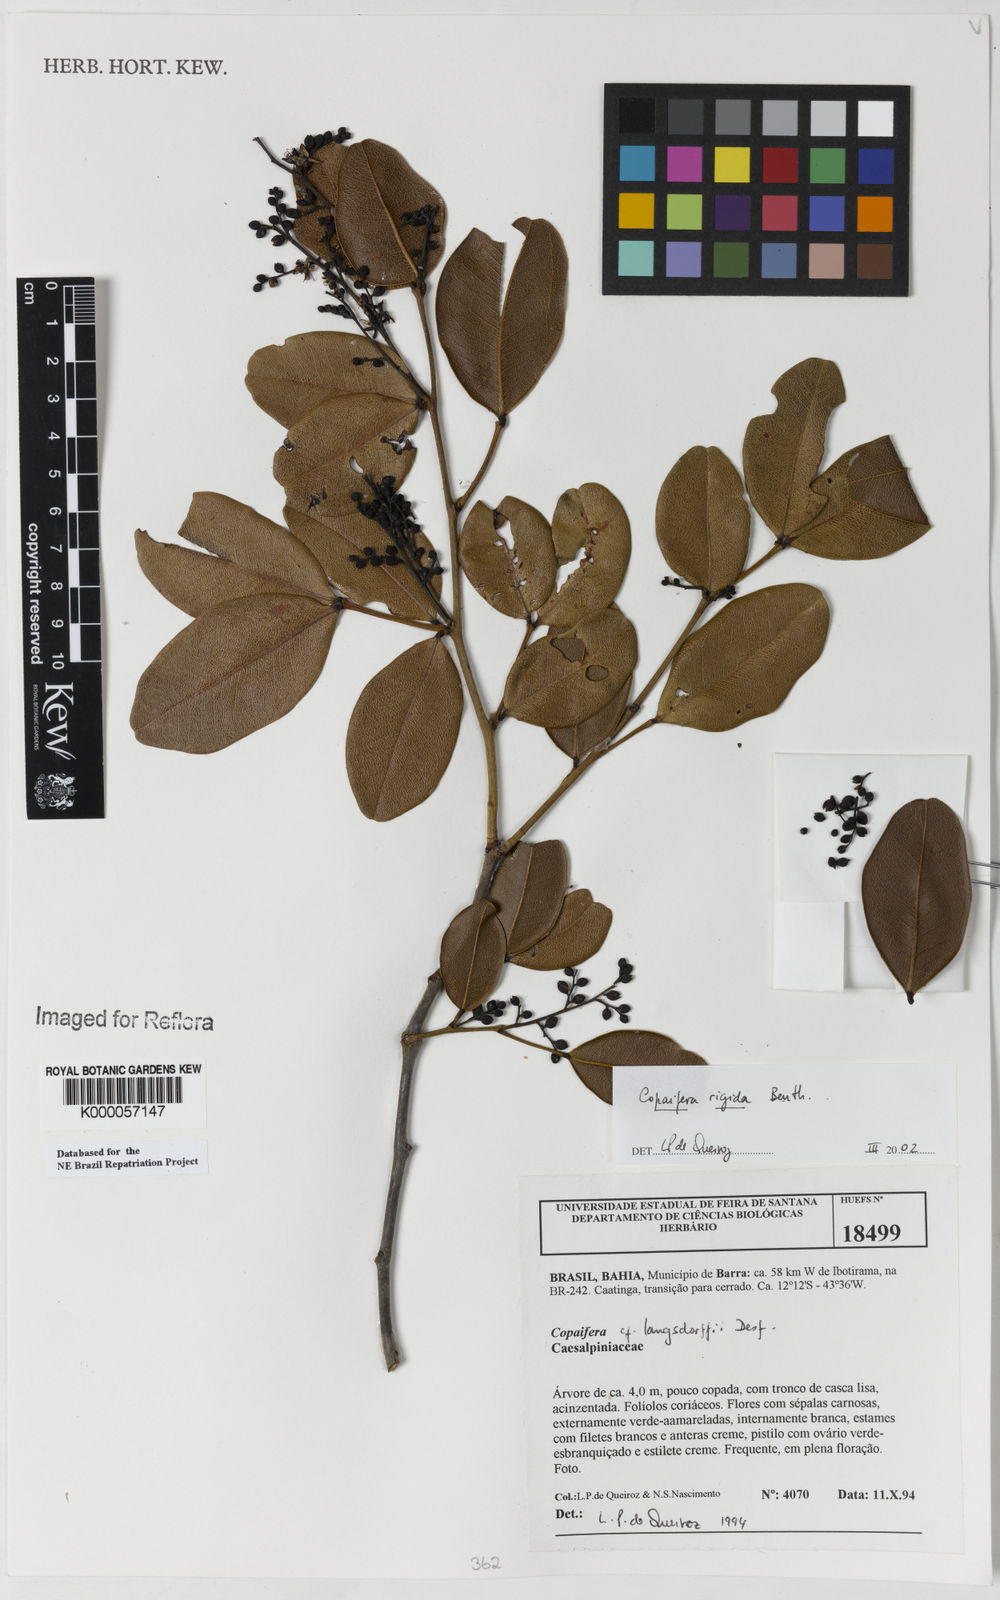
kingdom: Plantae
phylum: Tracheophyta
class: Magnoliopsida
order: Fabales
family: Fabaceae
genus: Copaifera
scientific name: Copaifera martii
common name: Copaiba
